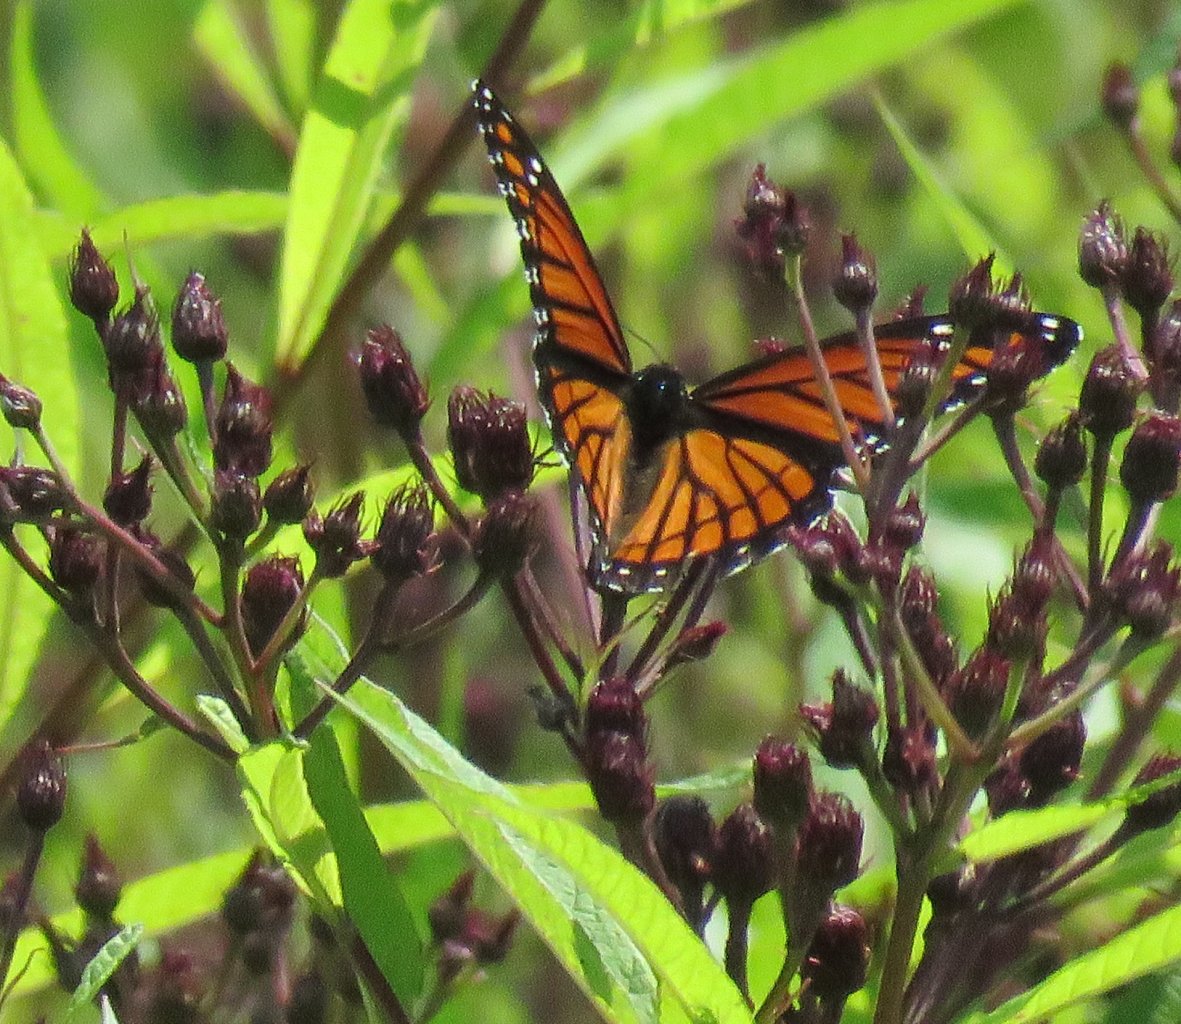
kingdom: Animalia
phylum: Arthropoda
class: Insecta
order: Lepidoptera
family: Nymphalidae
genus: Limenitis
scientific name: Limenitis archippus
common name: Viceroy
